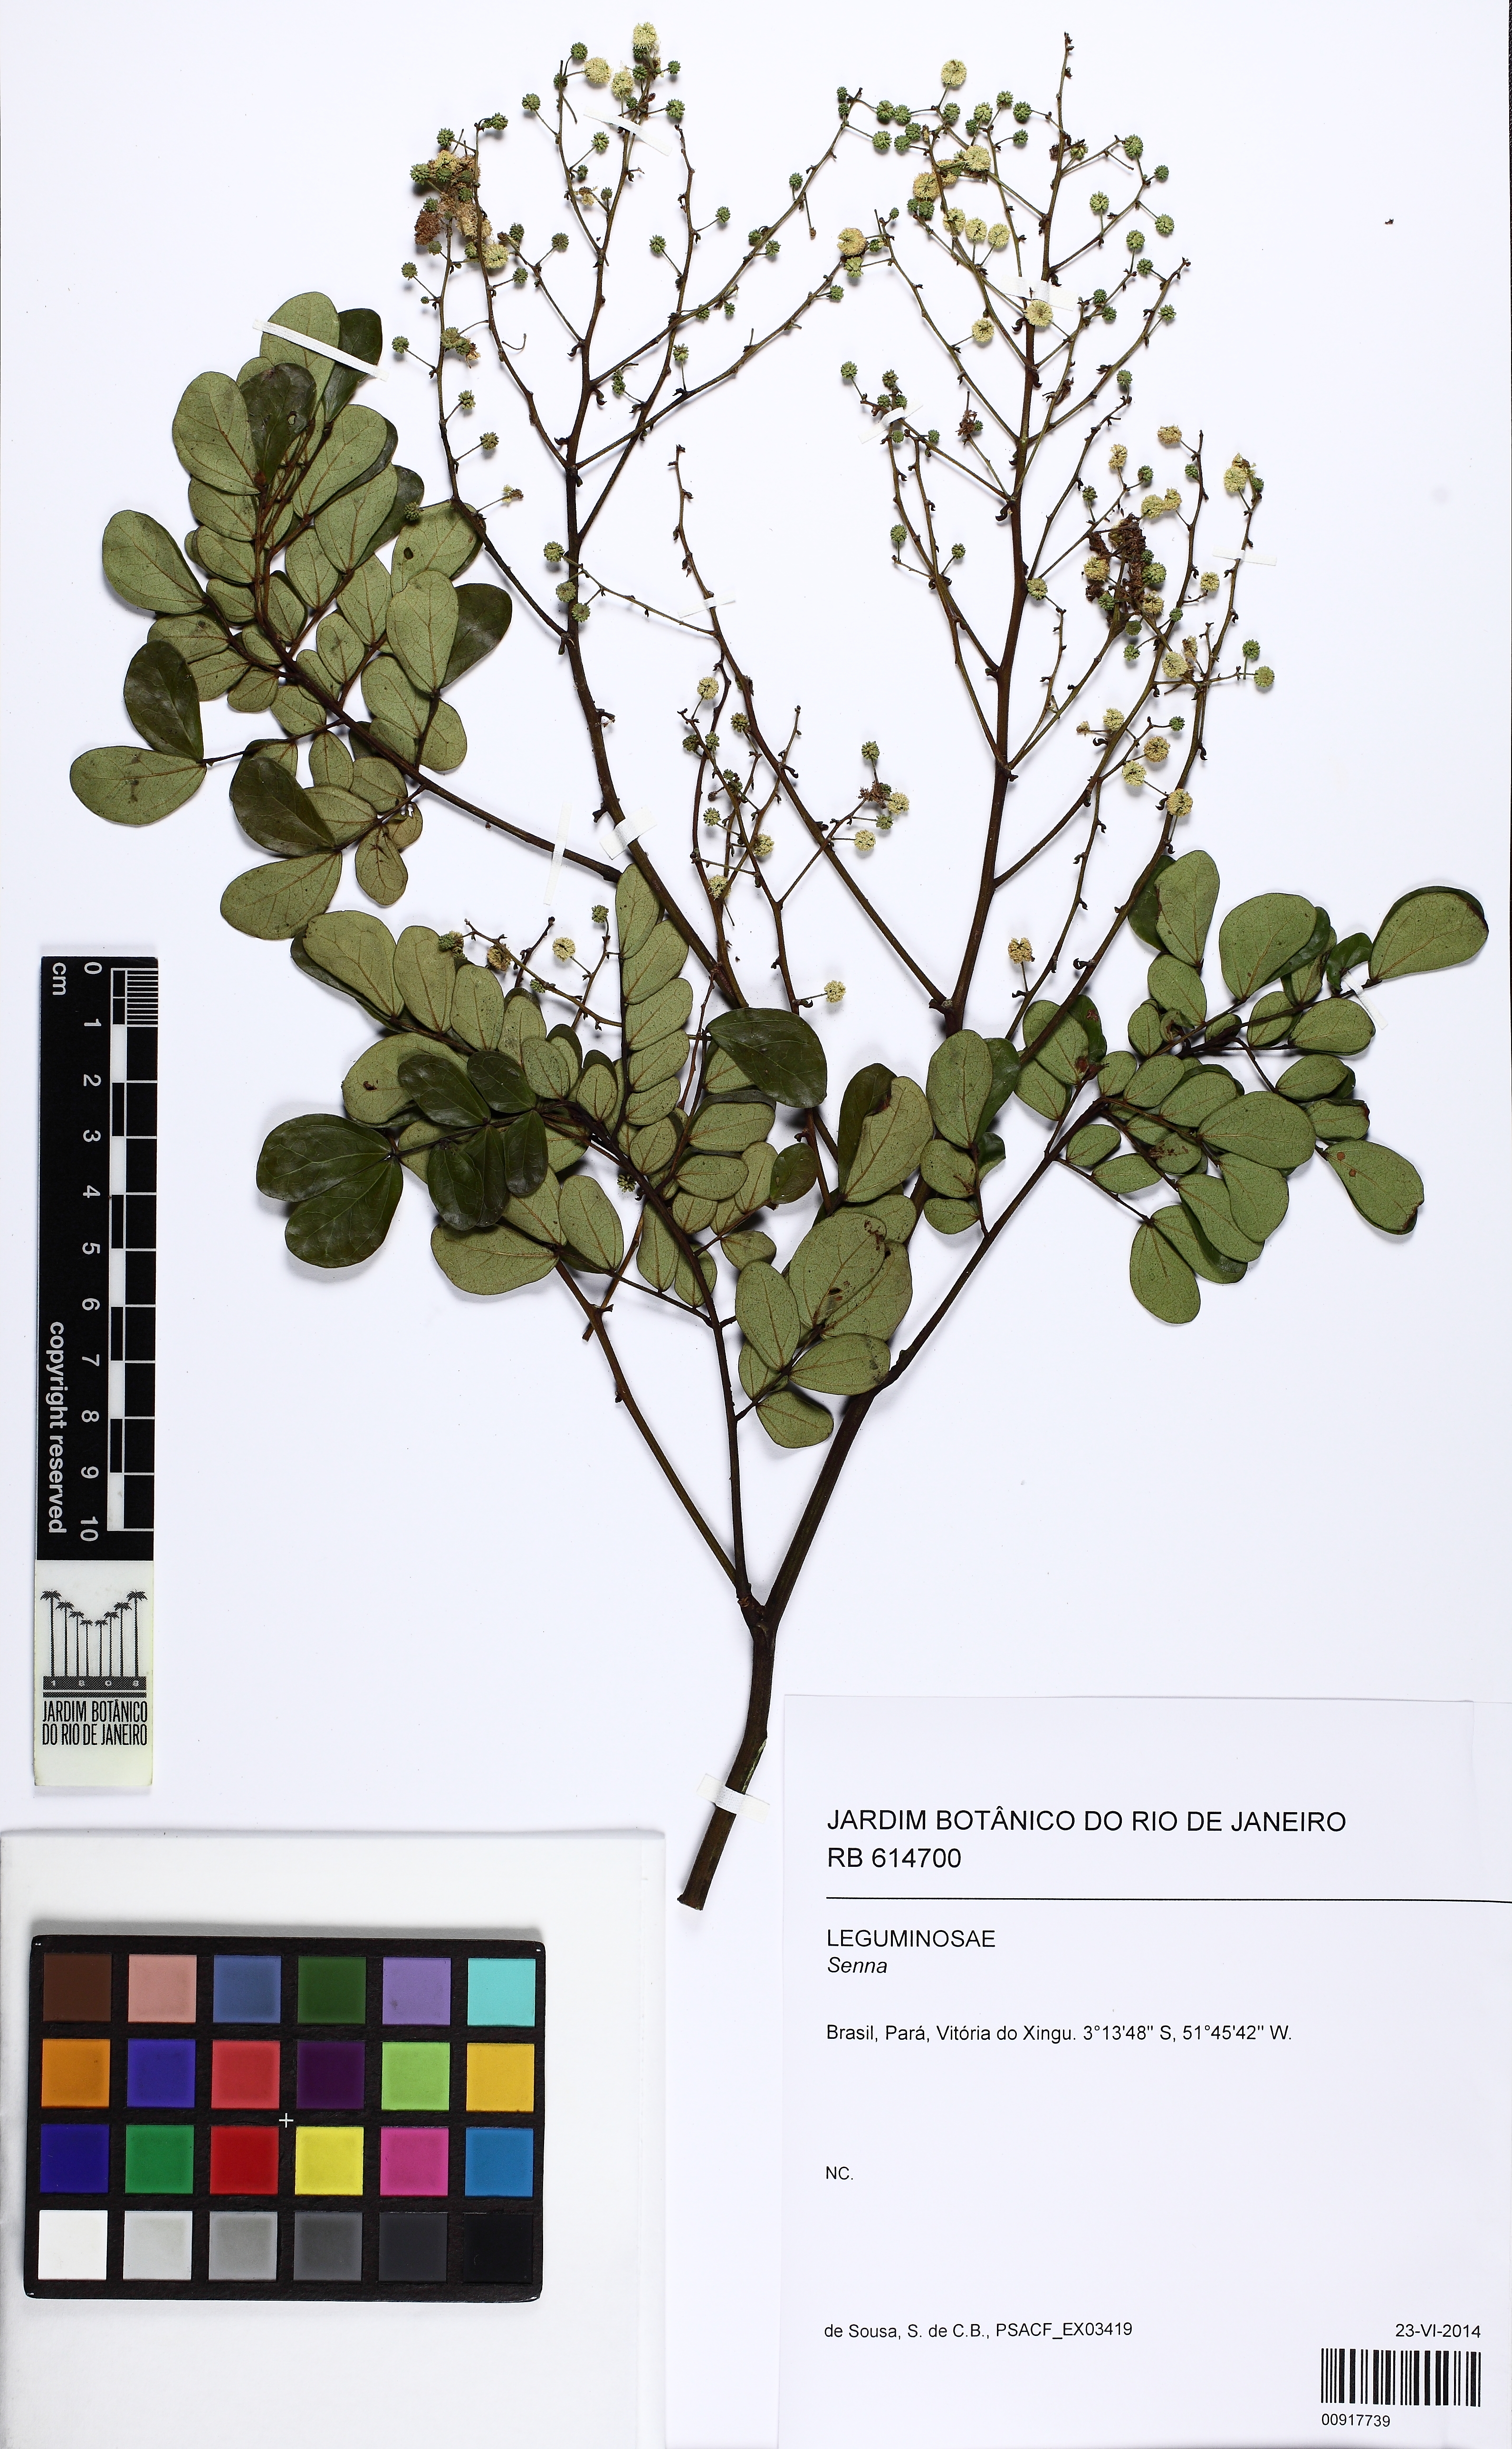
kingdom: Plantae
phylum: Tracheophyta
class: Magnoliopsida
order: Fabales
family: Fabaceae
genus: Mimosa
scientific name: Mimosa guilandinae
